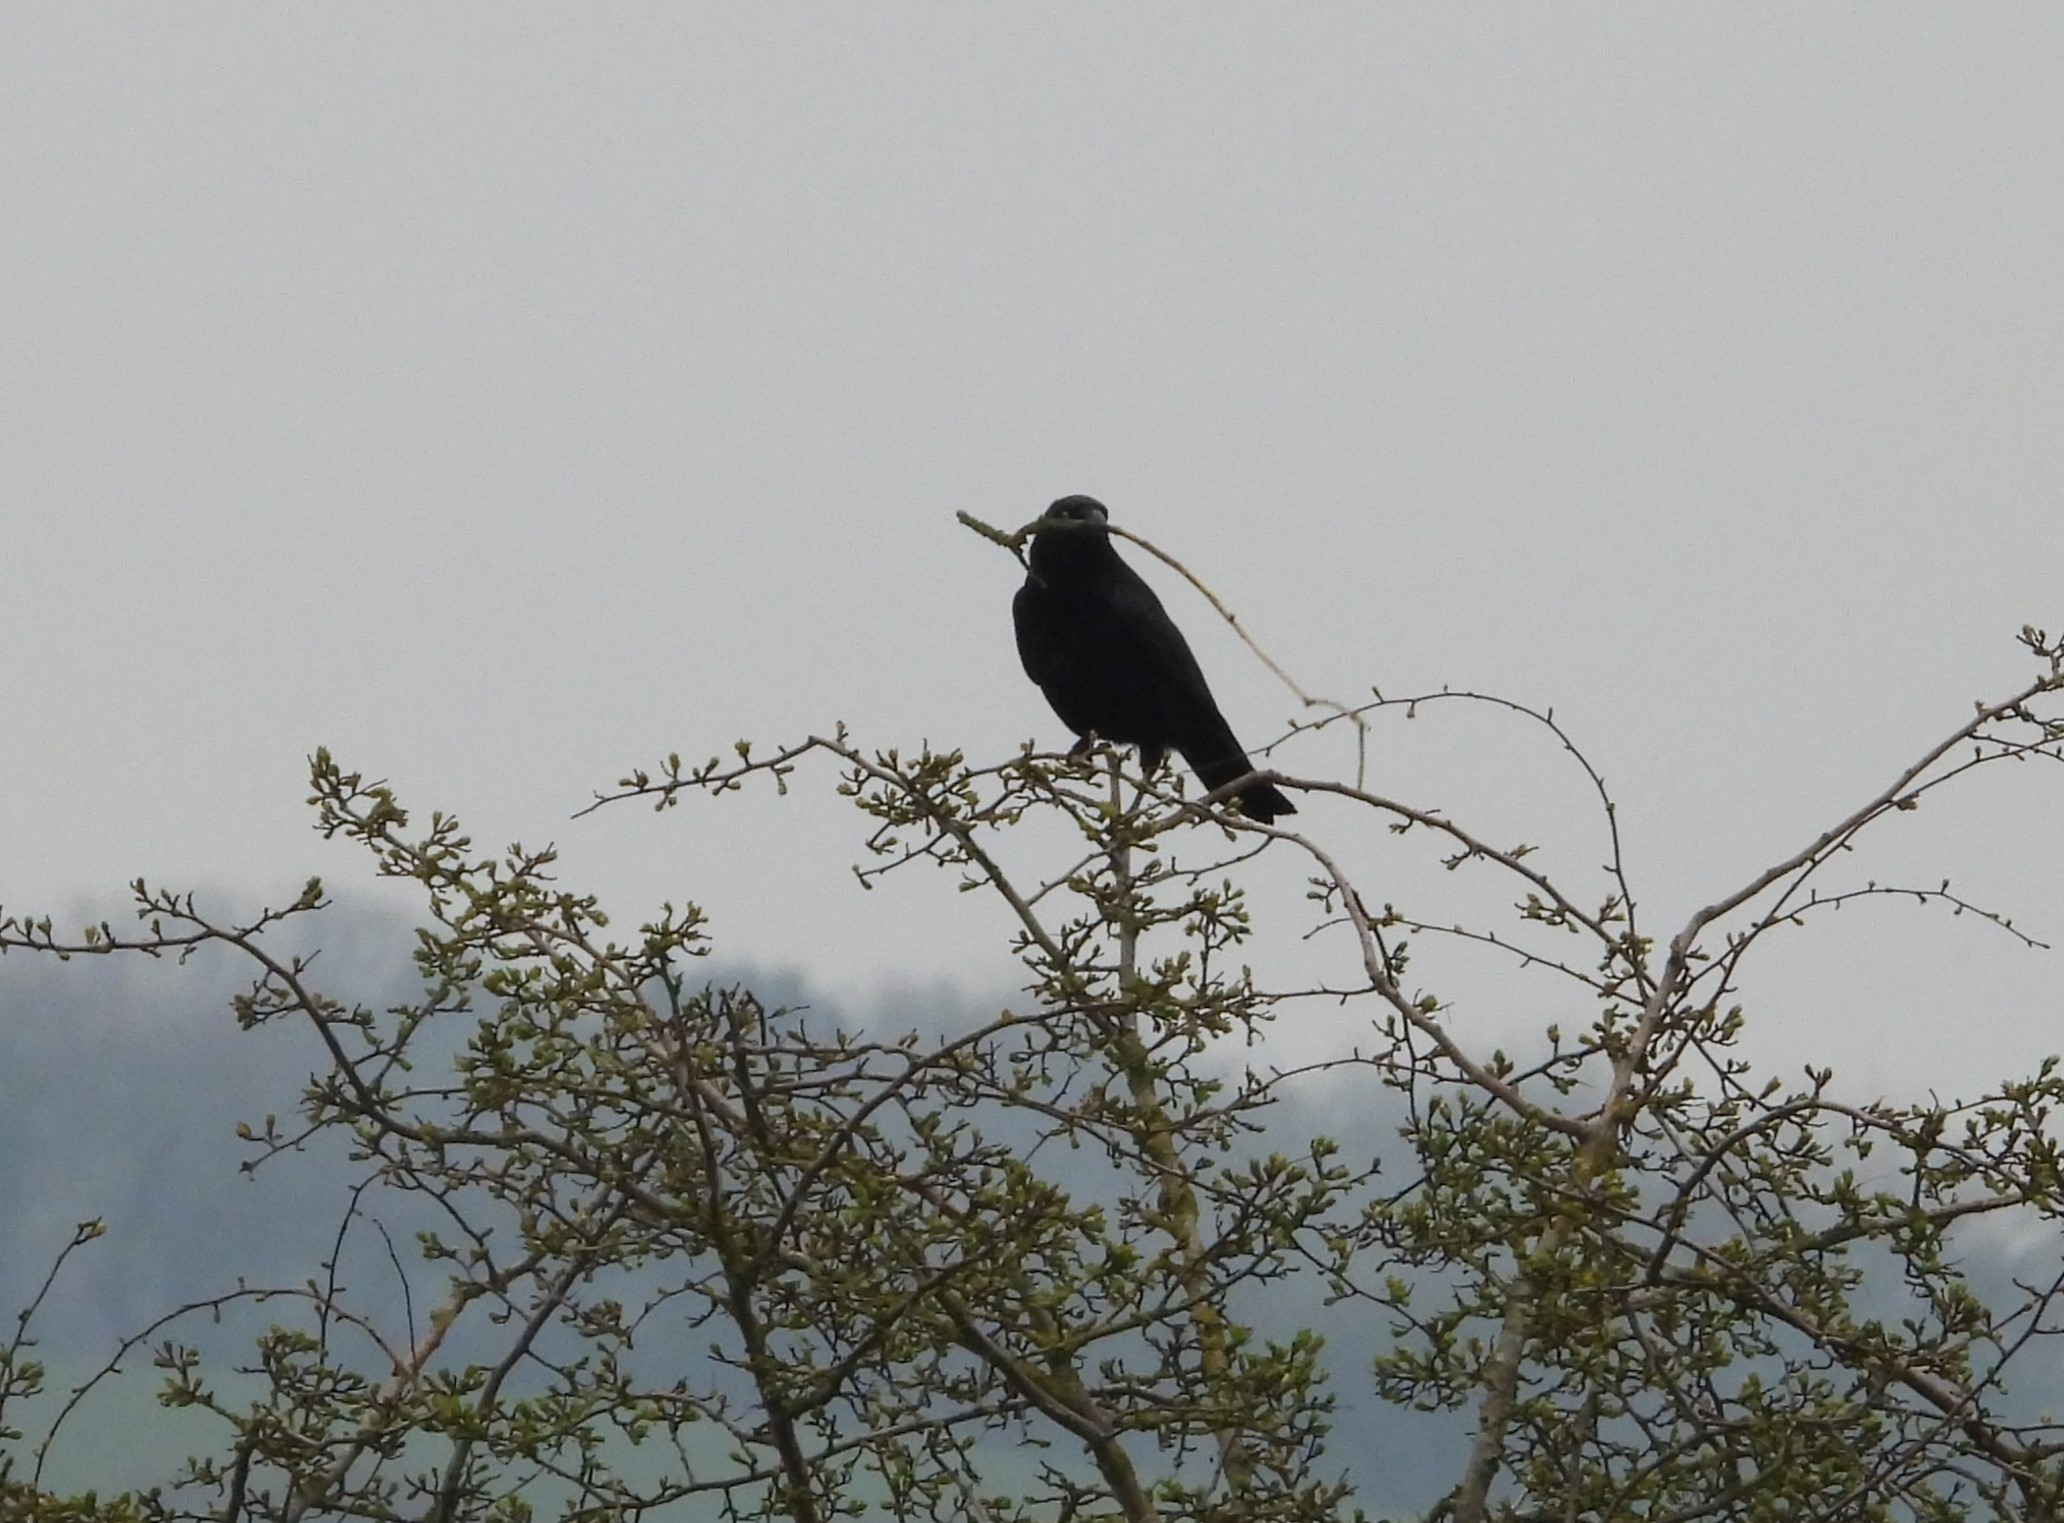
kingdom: Animalia
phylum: Chordata
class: Aves
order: Passeriformes
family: Corvidae
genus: Corvus
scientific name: Corvus corone
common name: Sortkrage
